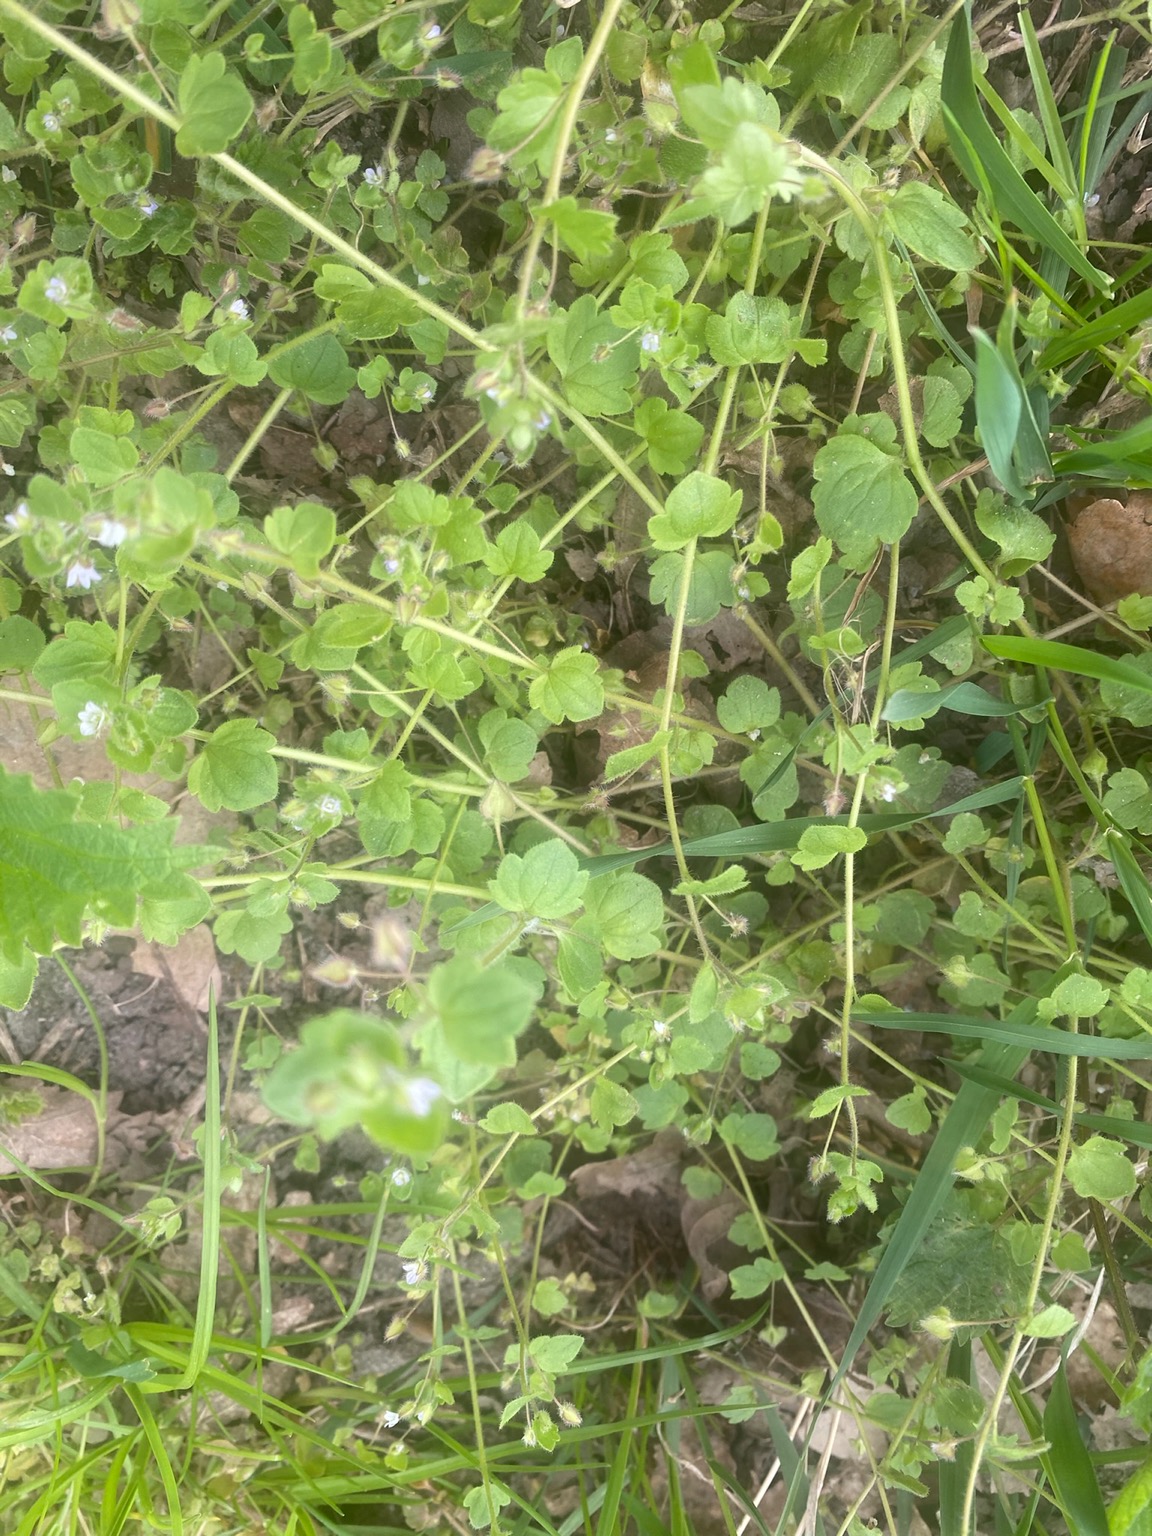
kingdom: Plantae
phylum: Tracheophyta
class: Magnoliopsida
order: Lamiales
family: Plantaginaceae
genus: Veronica
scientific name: Veronica hederifolia
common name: Vedbend-ærenpris
